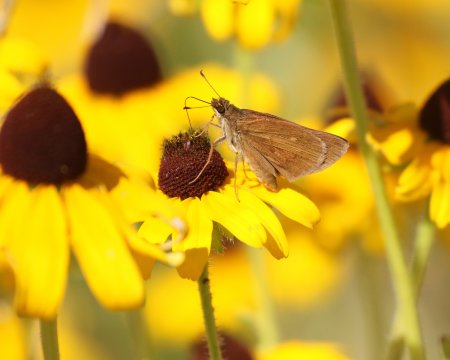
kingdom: Animalia
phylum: Arthropoda
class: Insecta
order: Lepidoptera
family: Hesperiidae
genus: Poanes
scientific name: Poanes viator
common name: Broad-winged Skipper
